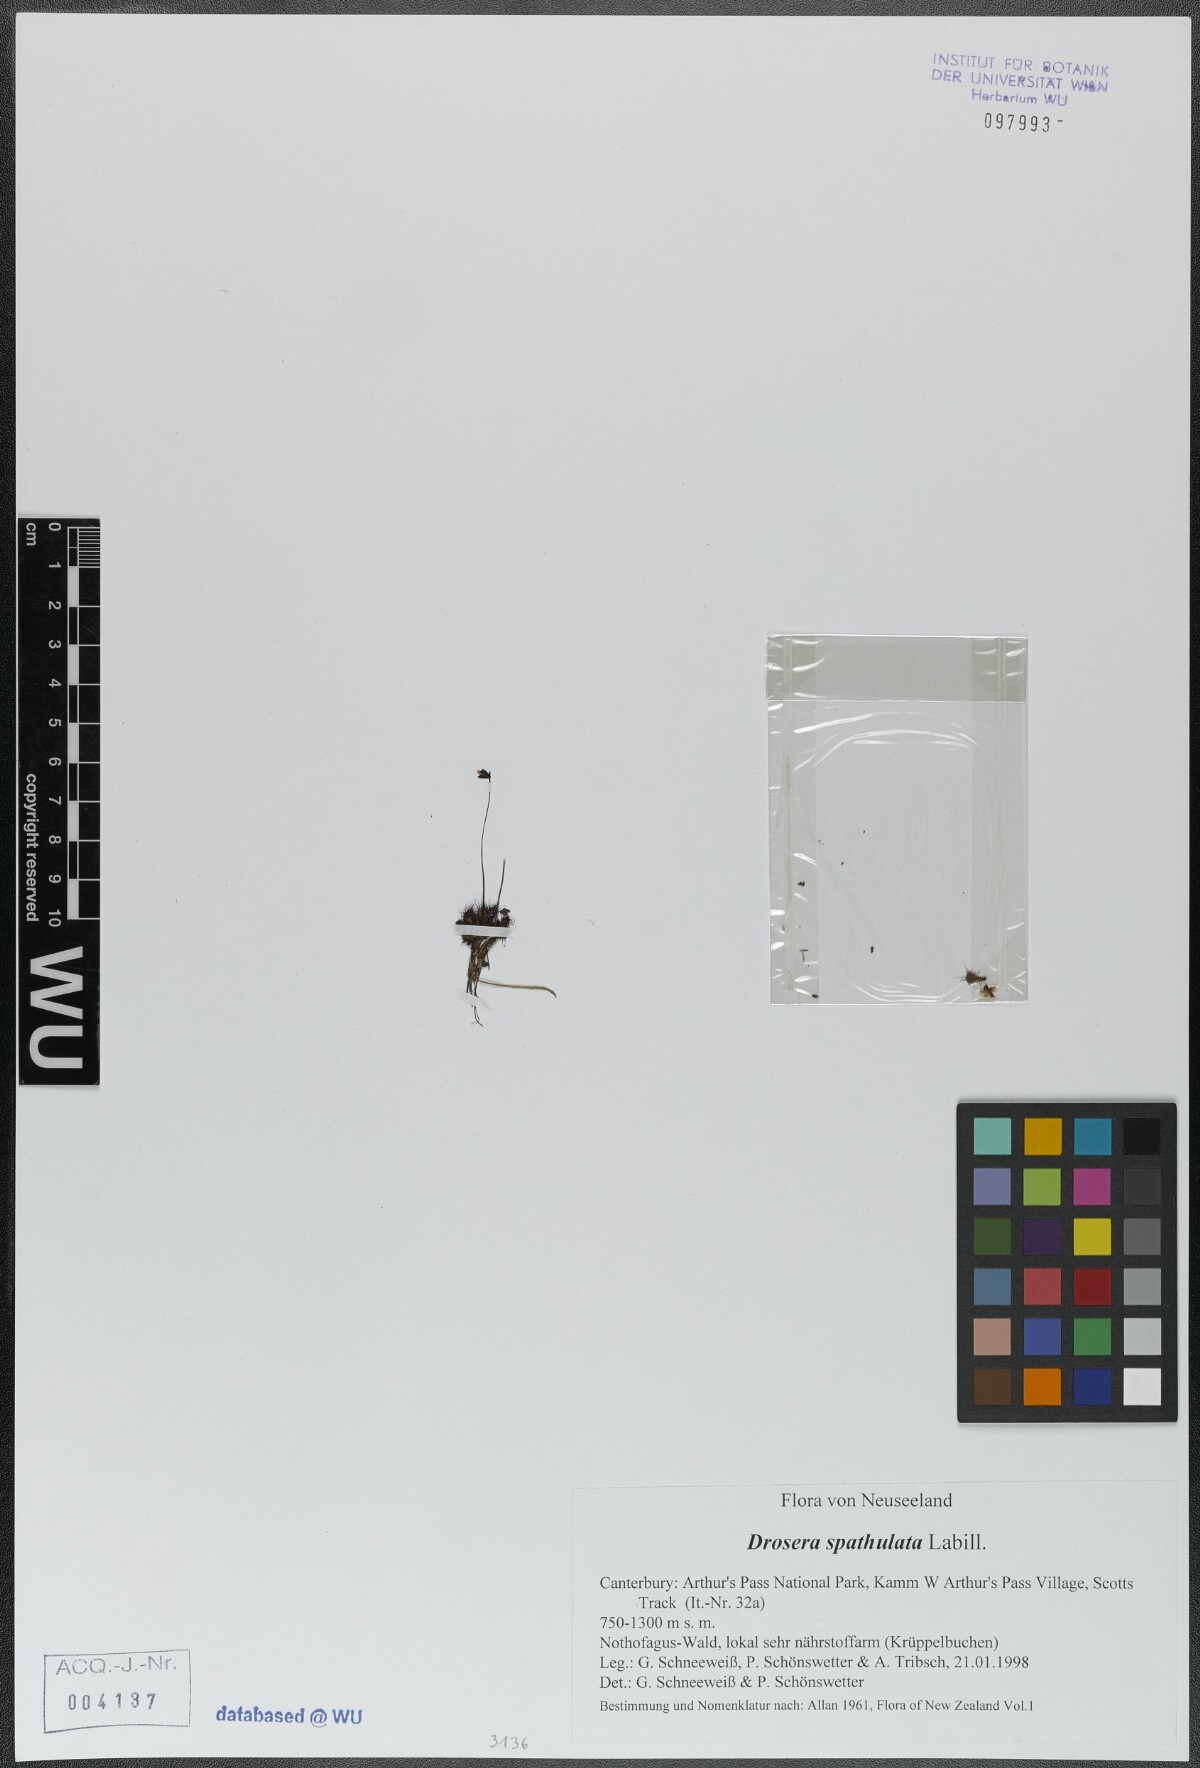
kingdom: Plantae
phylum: Tracheophyta
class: Magnoliopsida
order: Caryophyllales
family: Droseraceae
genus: Drosera
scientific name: Drosera spatulata
